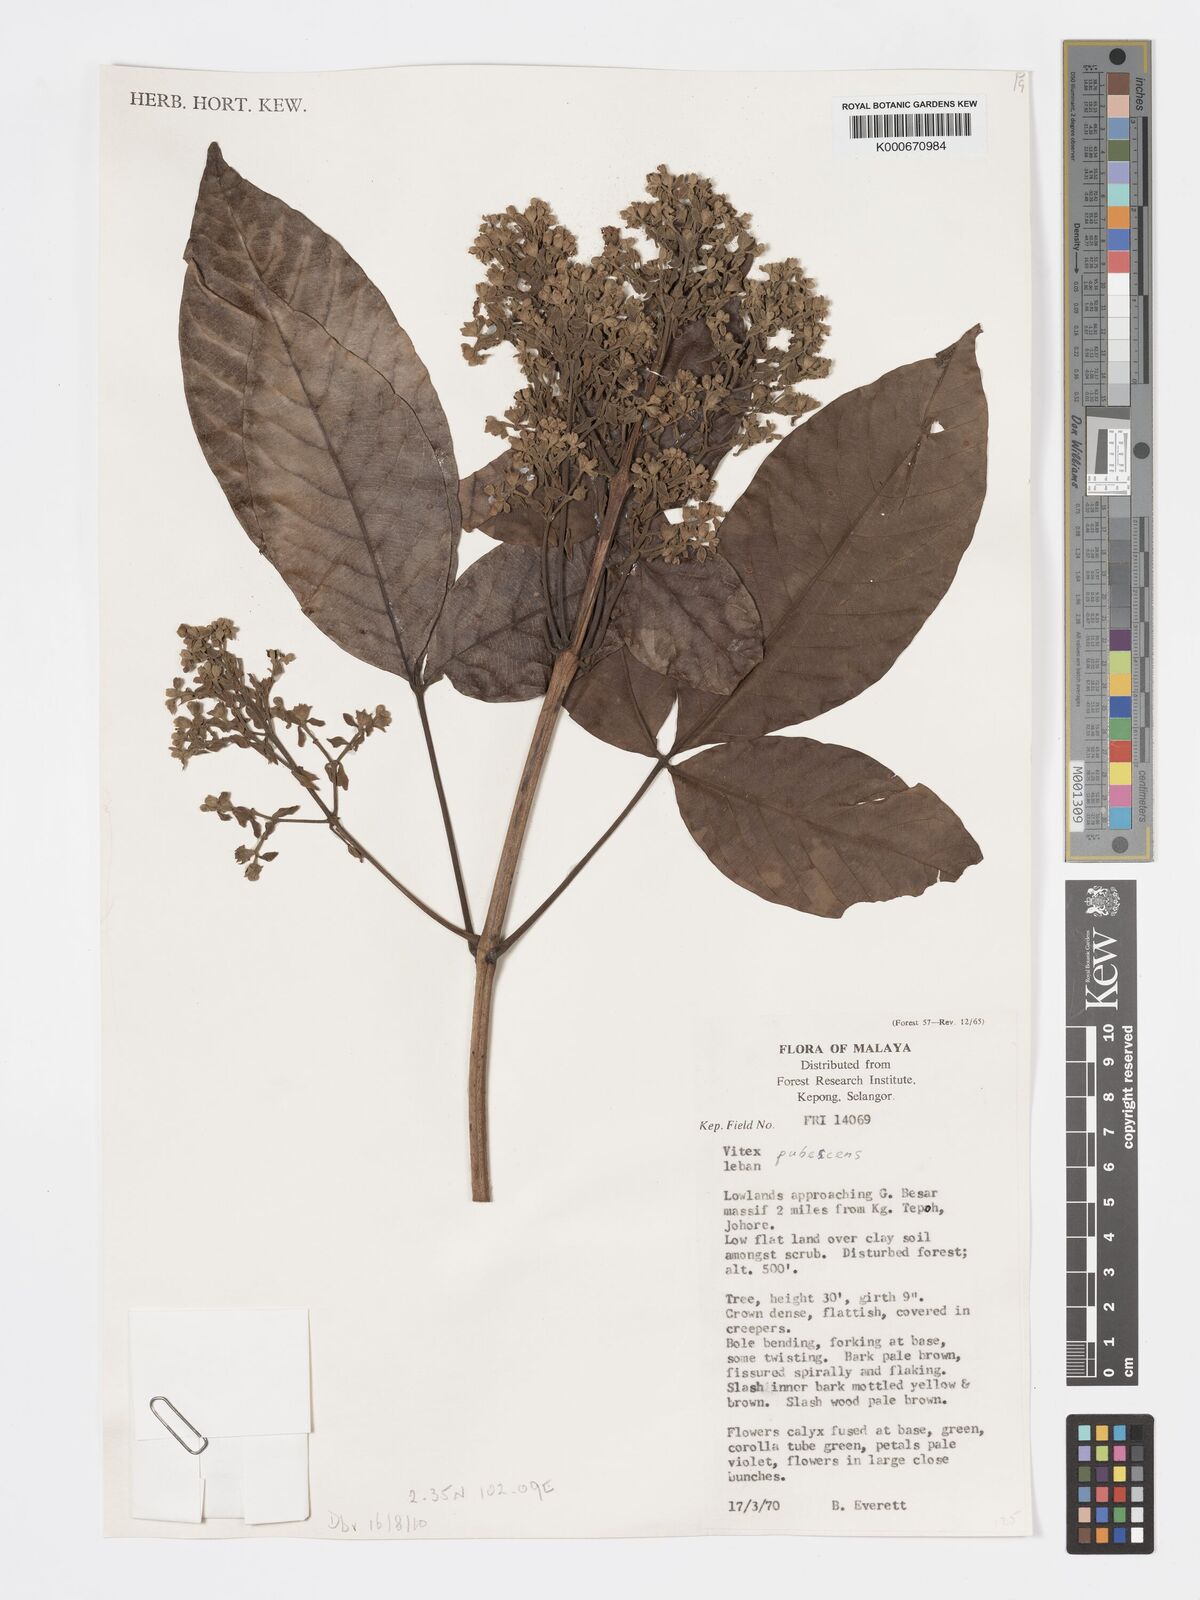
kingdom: Plantae
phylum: Tracheophyta
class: Magnoliopsida
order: Lamiales
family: Lamiaceae
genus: Vitex
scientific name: Vitex pinnata
